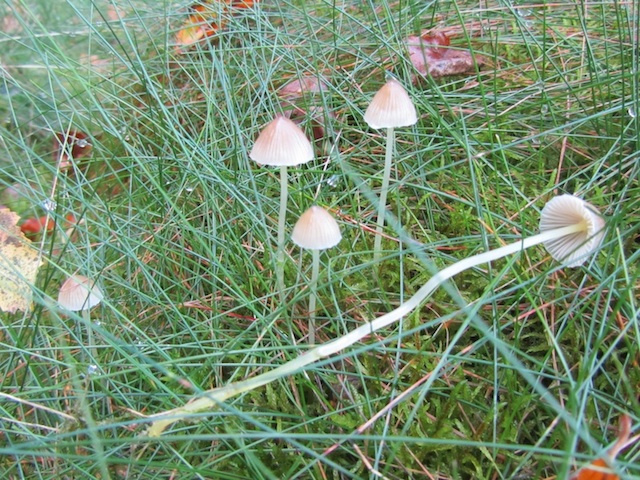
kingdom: Fungi
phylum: Basidiomycota
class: Agaricomycetes
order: Agaricales
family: Mycenaceae
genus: Mycena
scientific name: Mycena epipterygia
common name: gulstokket huesvamp
